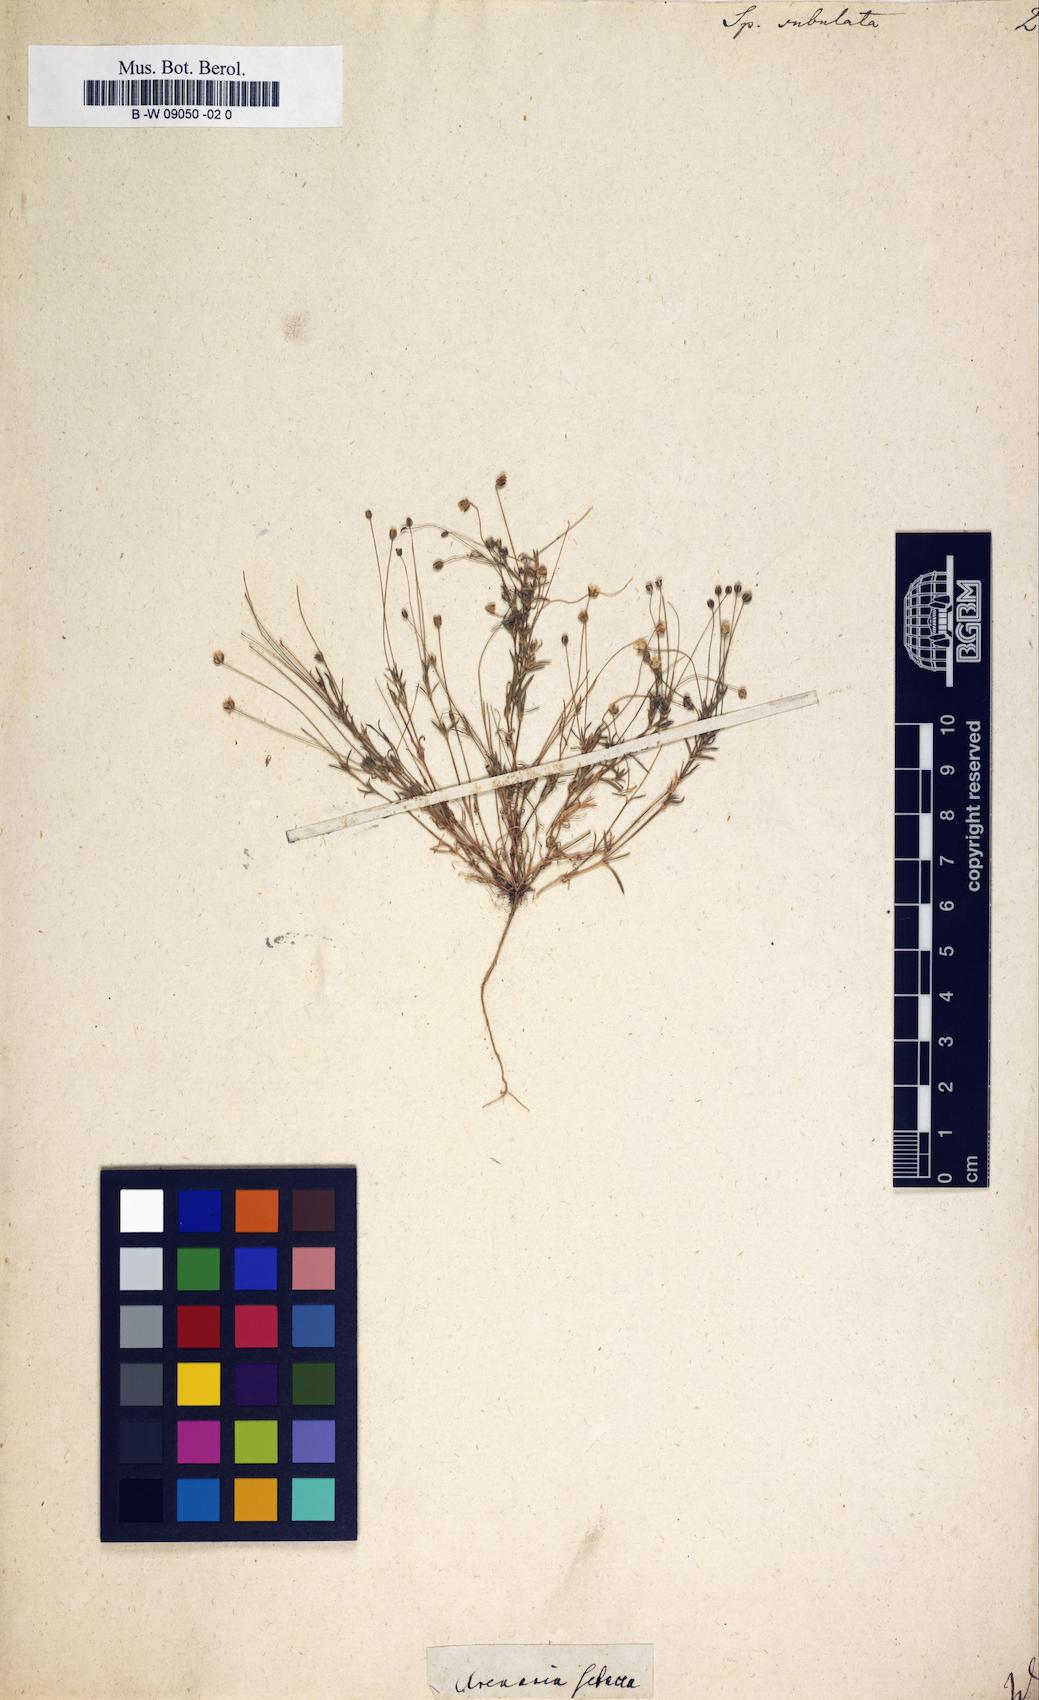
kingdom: Plantae
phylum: Tracheophyta
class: Magnoliopsida
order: Caryophyllales
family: Caryophyllaceae
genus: Sagina
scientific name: Sagina alexandrae
